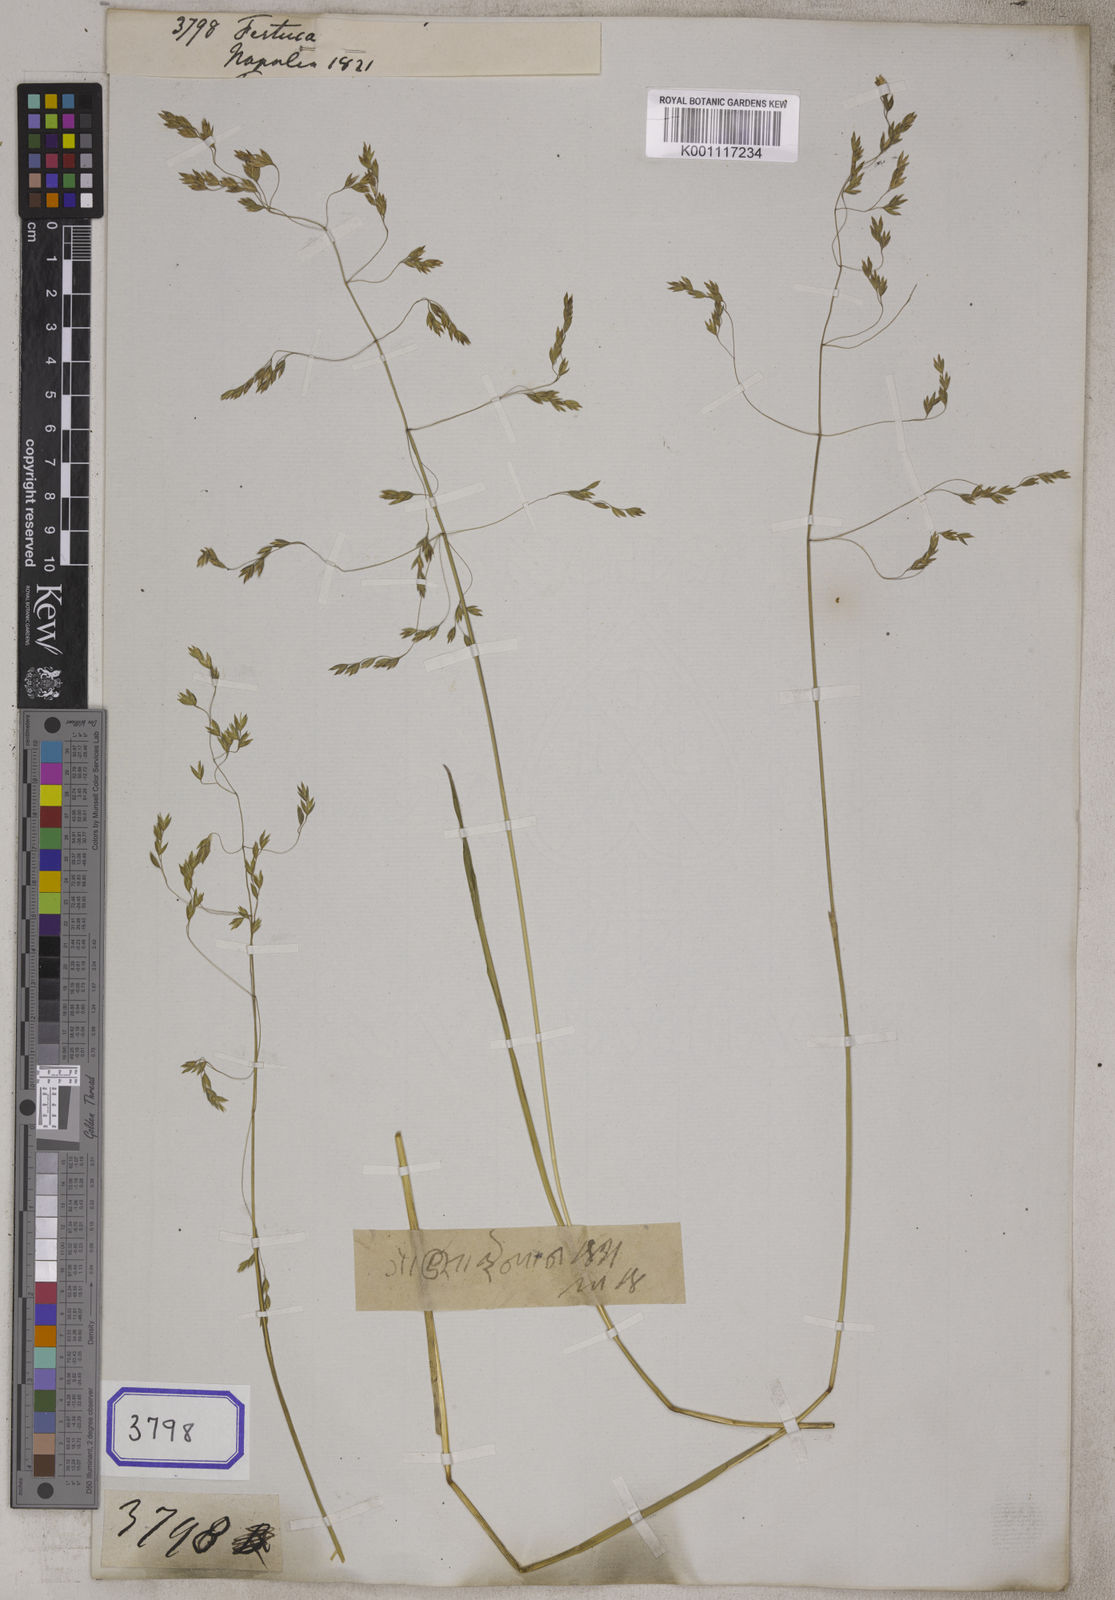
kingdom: Plantae
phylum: Tracheophyta
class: Liliopsida
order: Poales
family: Poaceae
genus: Festuca
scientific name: Festuca
